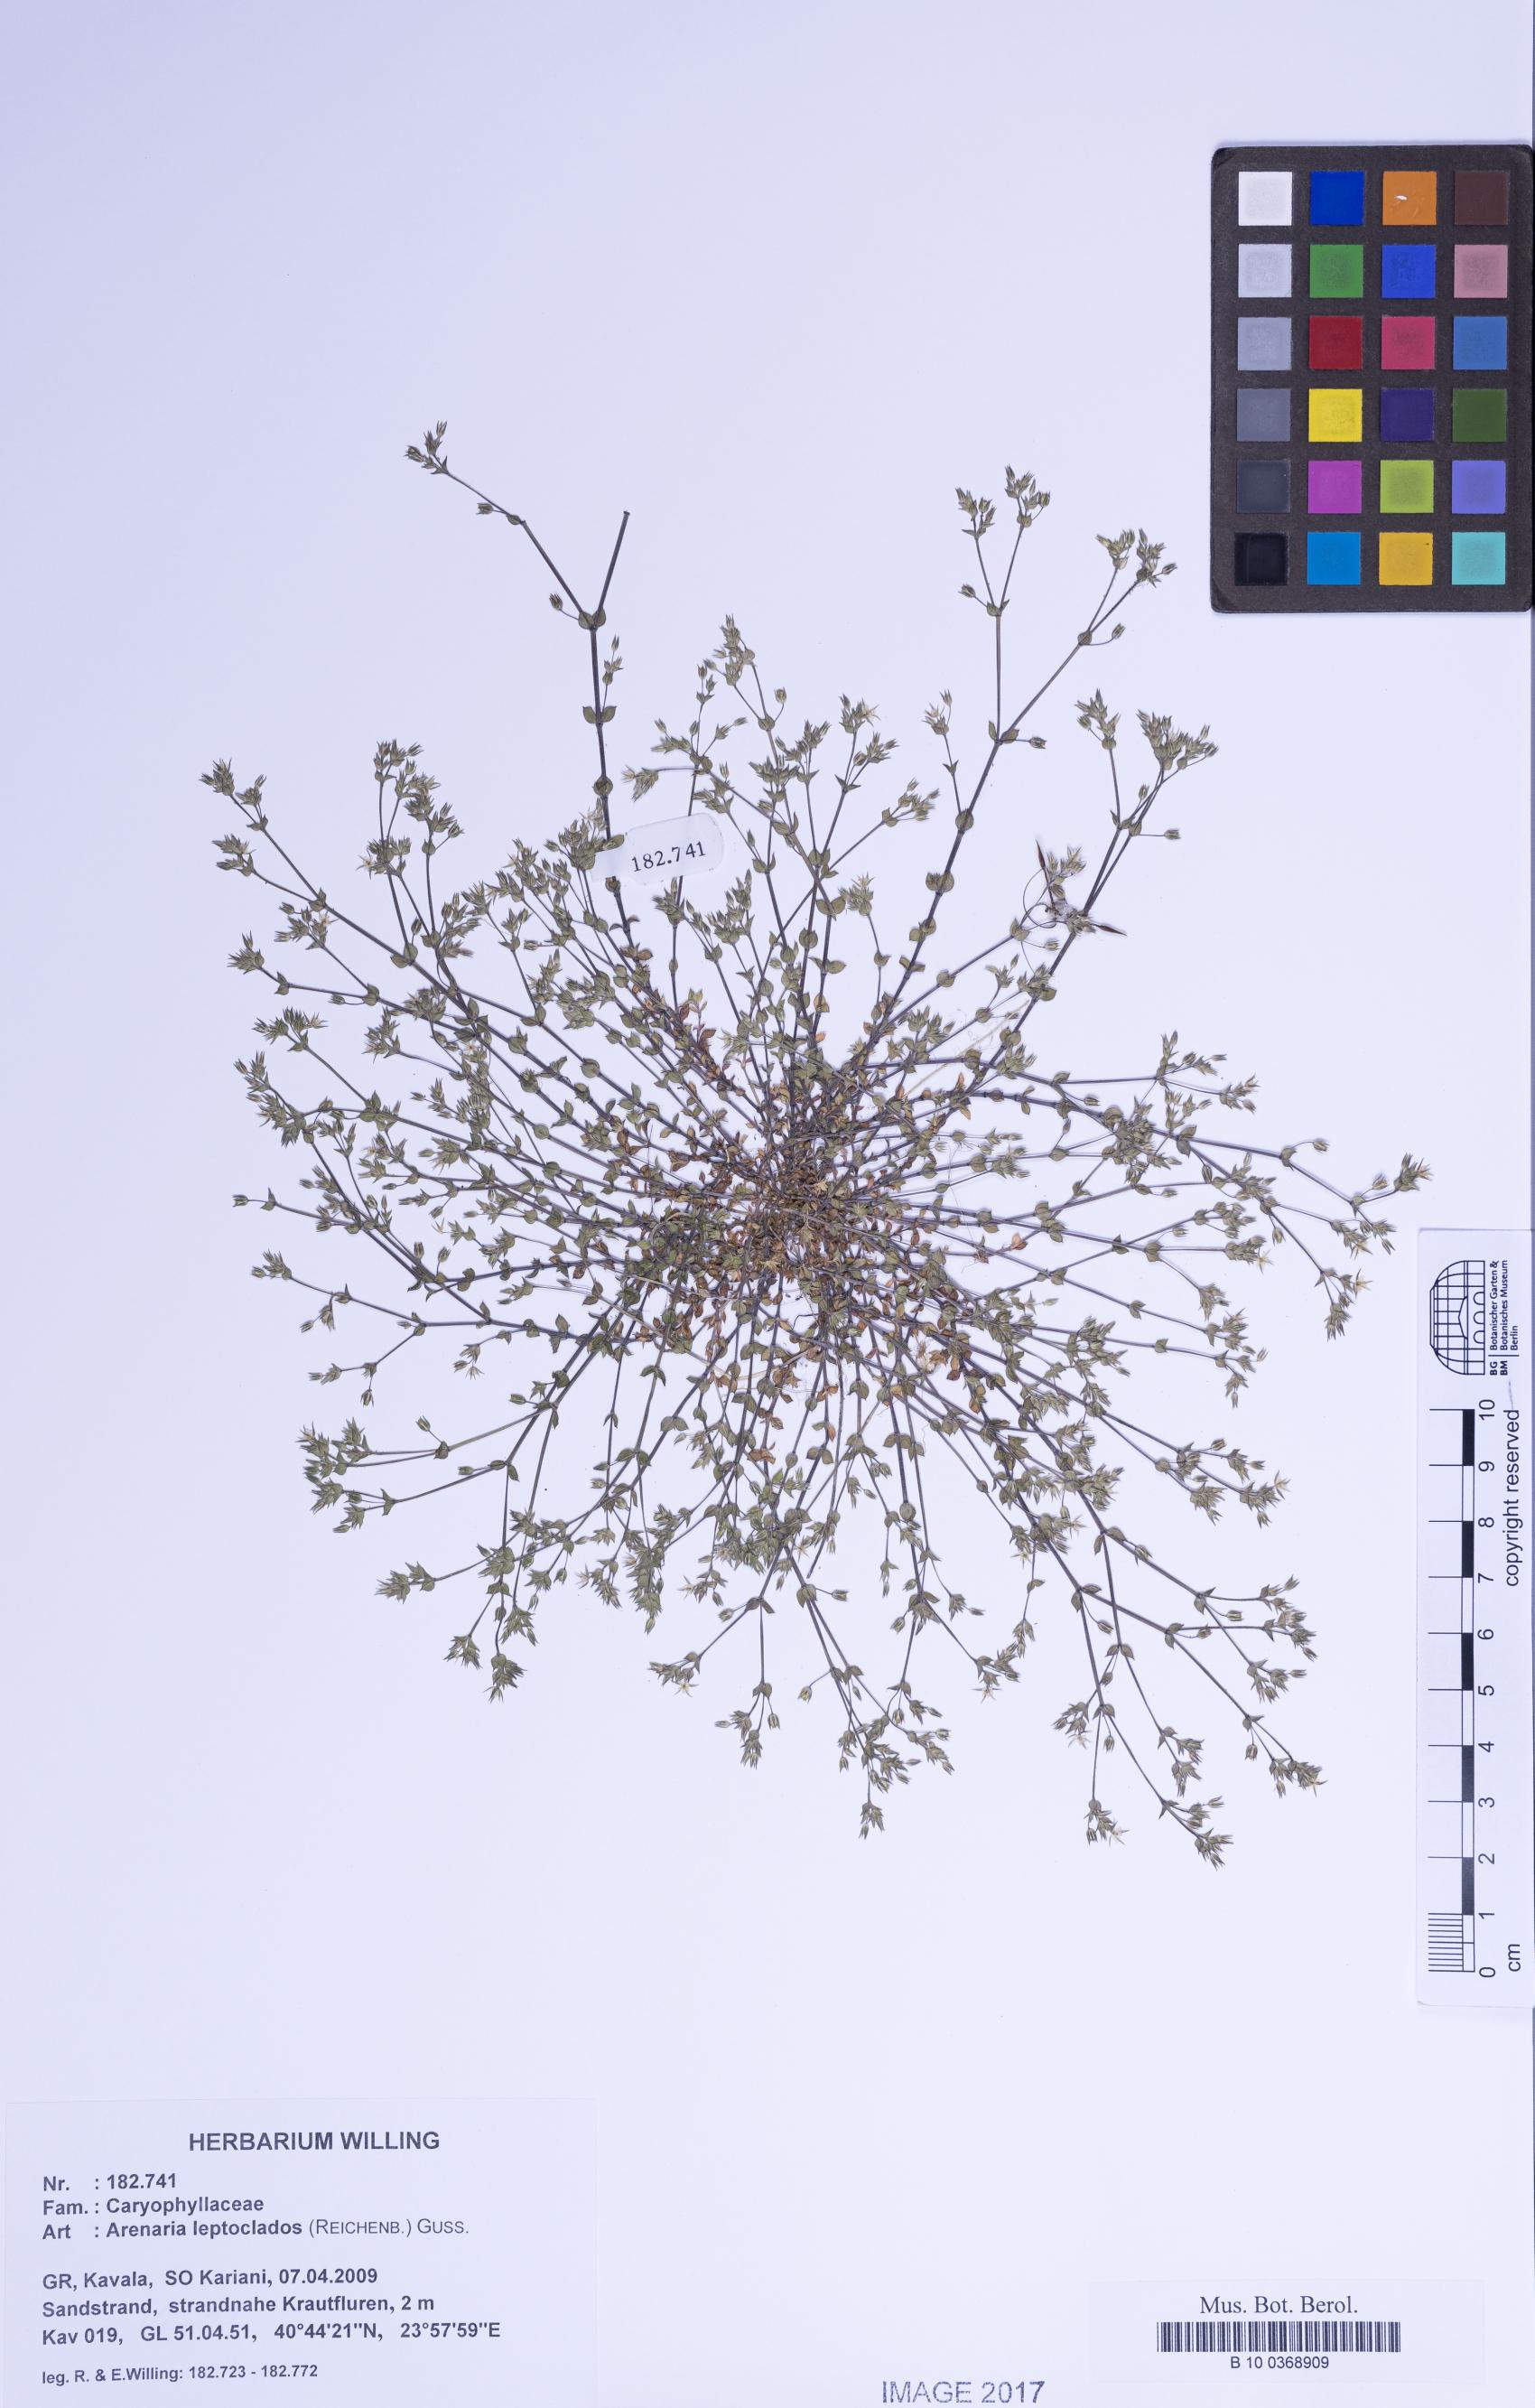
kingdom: Plantae
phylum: Tracheophyta
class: Magnoliopsida
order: Caryophyllales
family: Caryophyllaceae
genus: Arenaria
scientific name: Arenaria leptoclados
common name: Thyme-leaved sandwort
